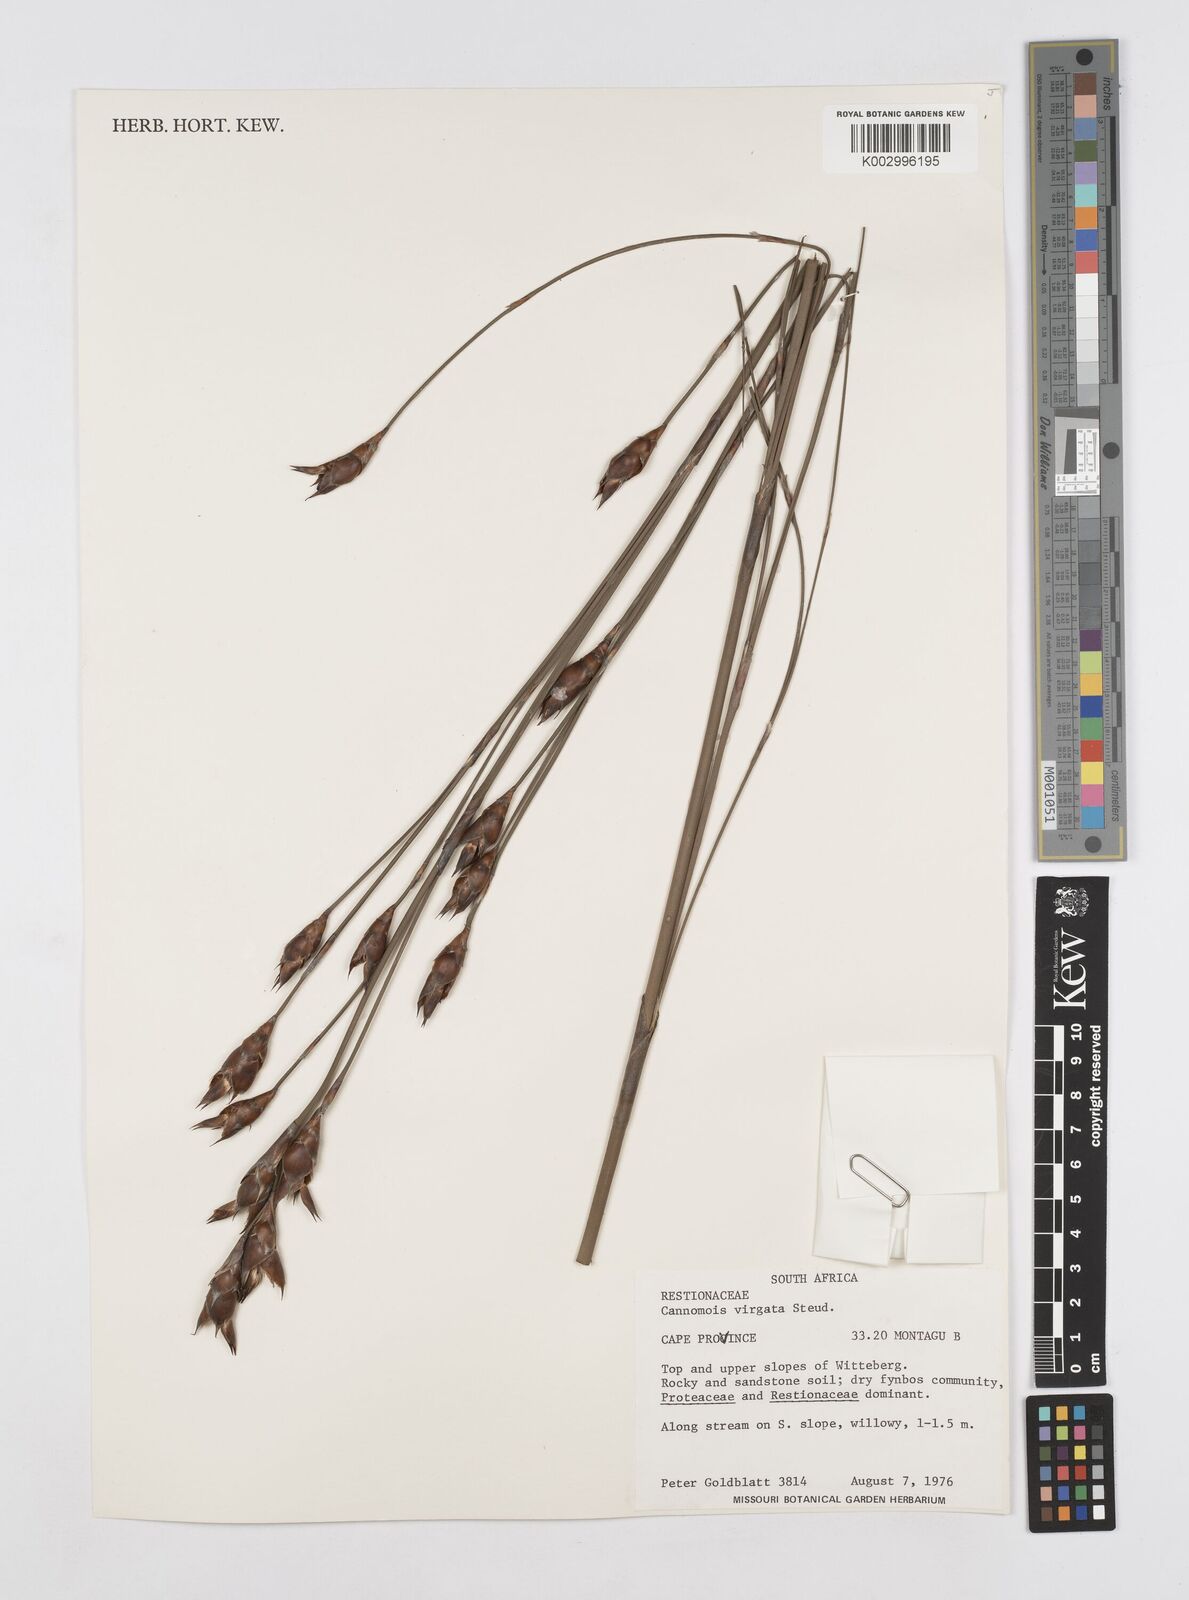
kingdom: Plantae
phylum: Tracheophyta
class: Liliopsida
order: Poales
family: Restionaceae
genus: Cannomois
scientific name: Cannomois virgata
